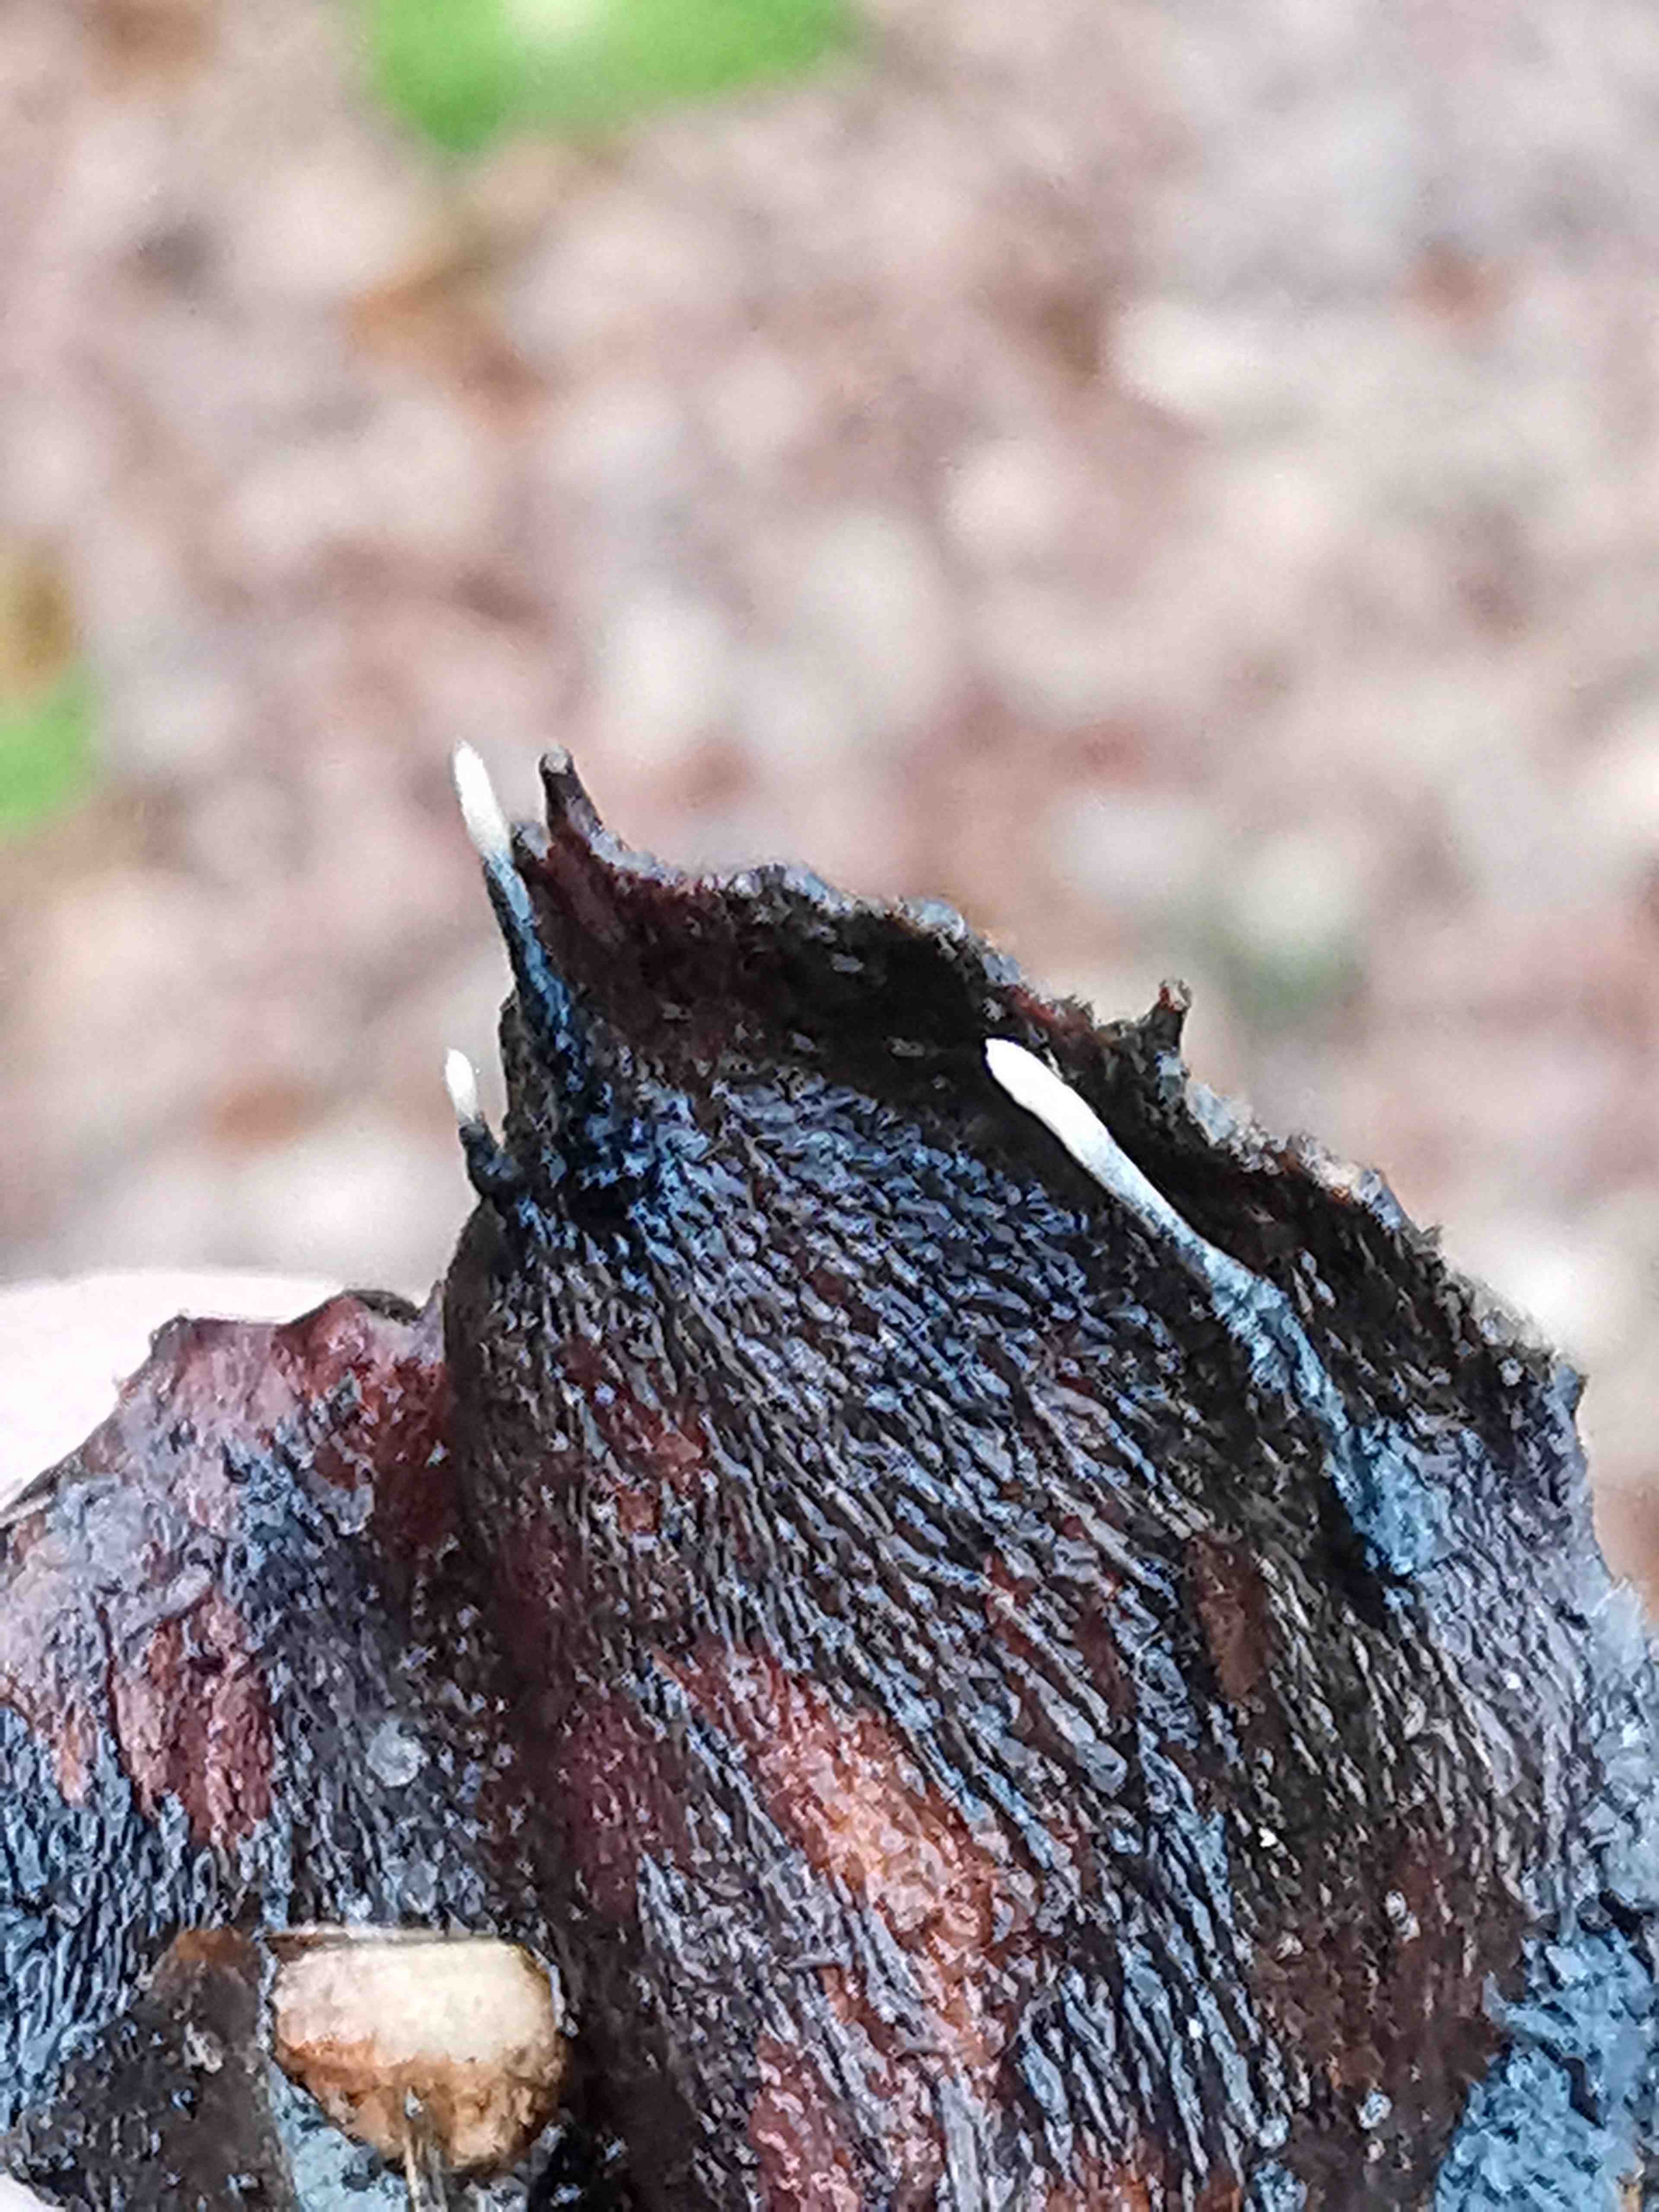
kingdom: Fungi
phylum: Ascomycota
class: Sordariomycetes
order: Xylariales
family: Xylariaceae
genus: Xylaria
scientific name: Xylaria carpophila
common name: bogskål-stødsvamp
